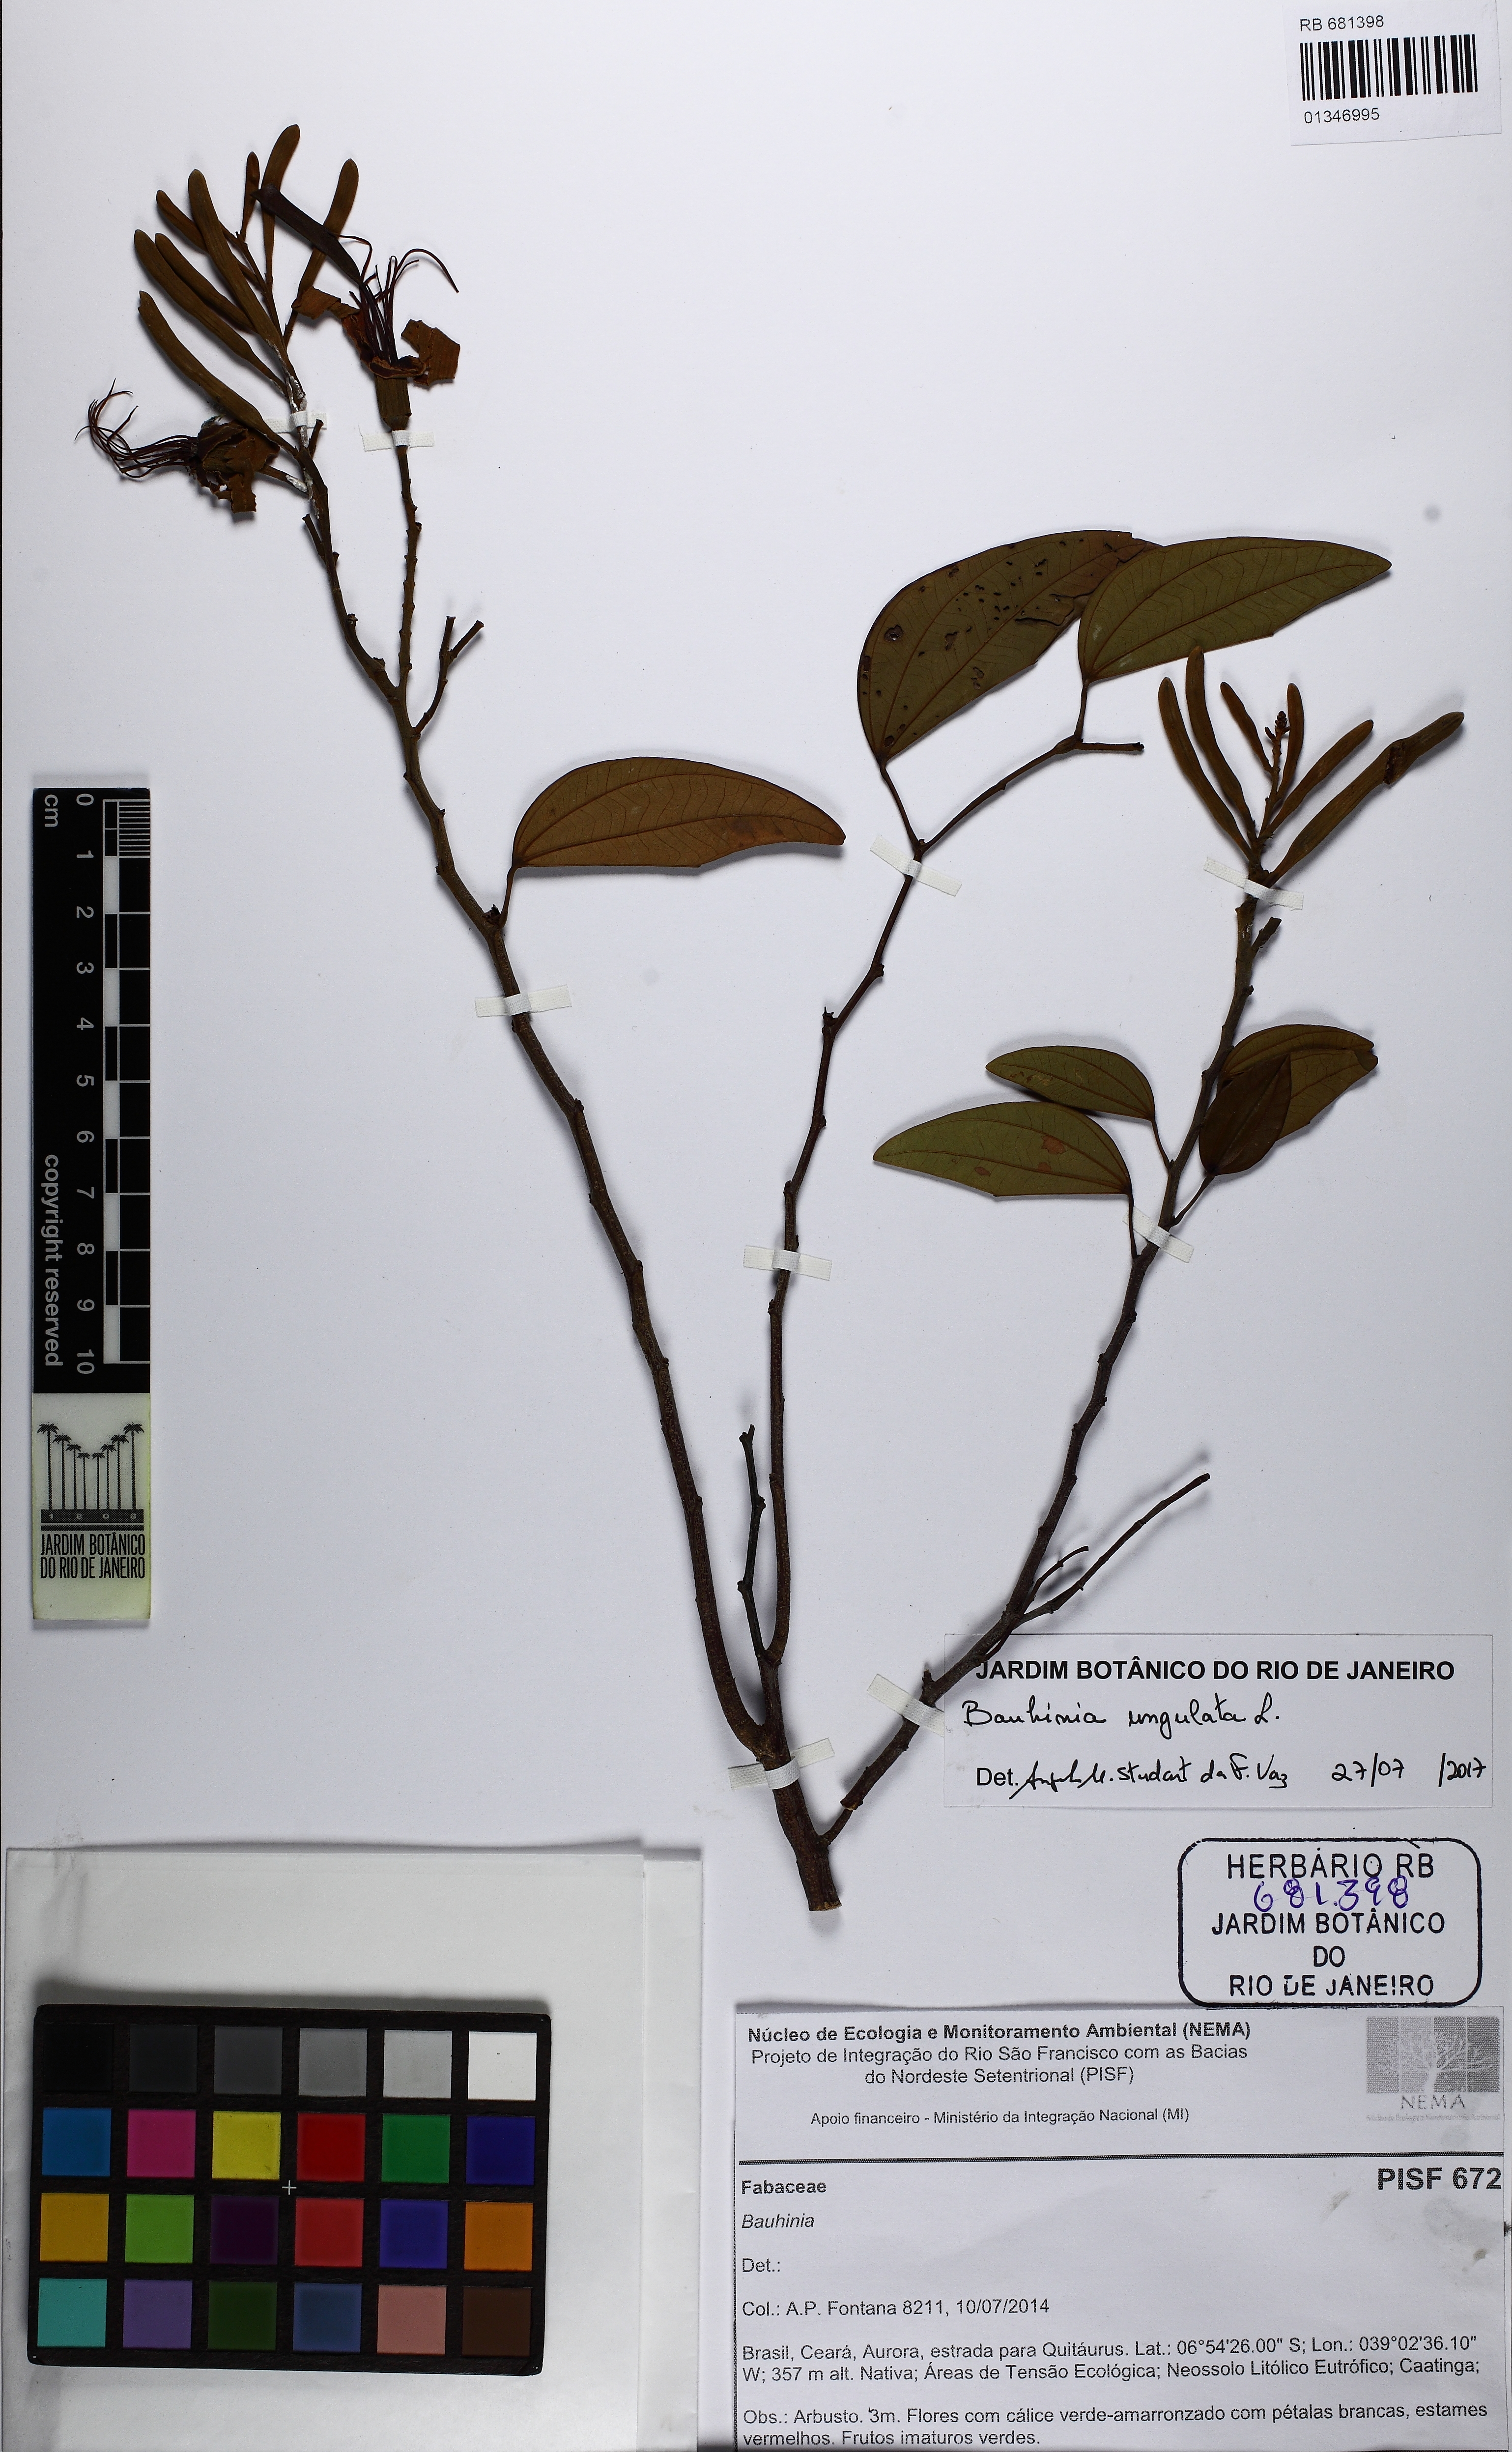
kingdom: Plantae
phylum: Tracheophyta
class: Magnoliopsida
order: Fabales
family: Fabaceae
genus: Bauhinia
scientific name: Bauhinia ungulata
